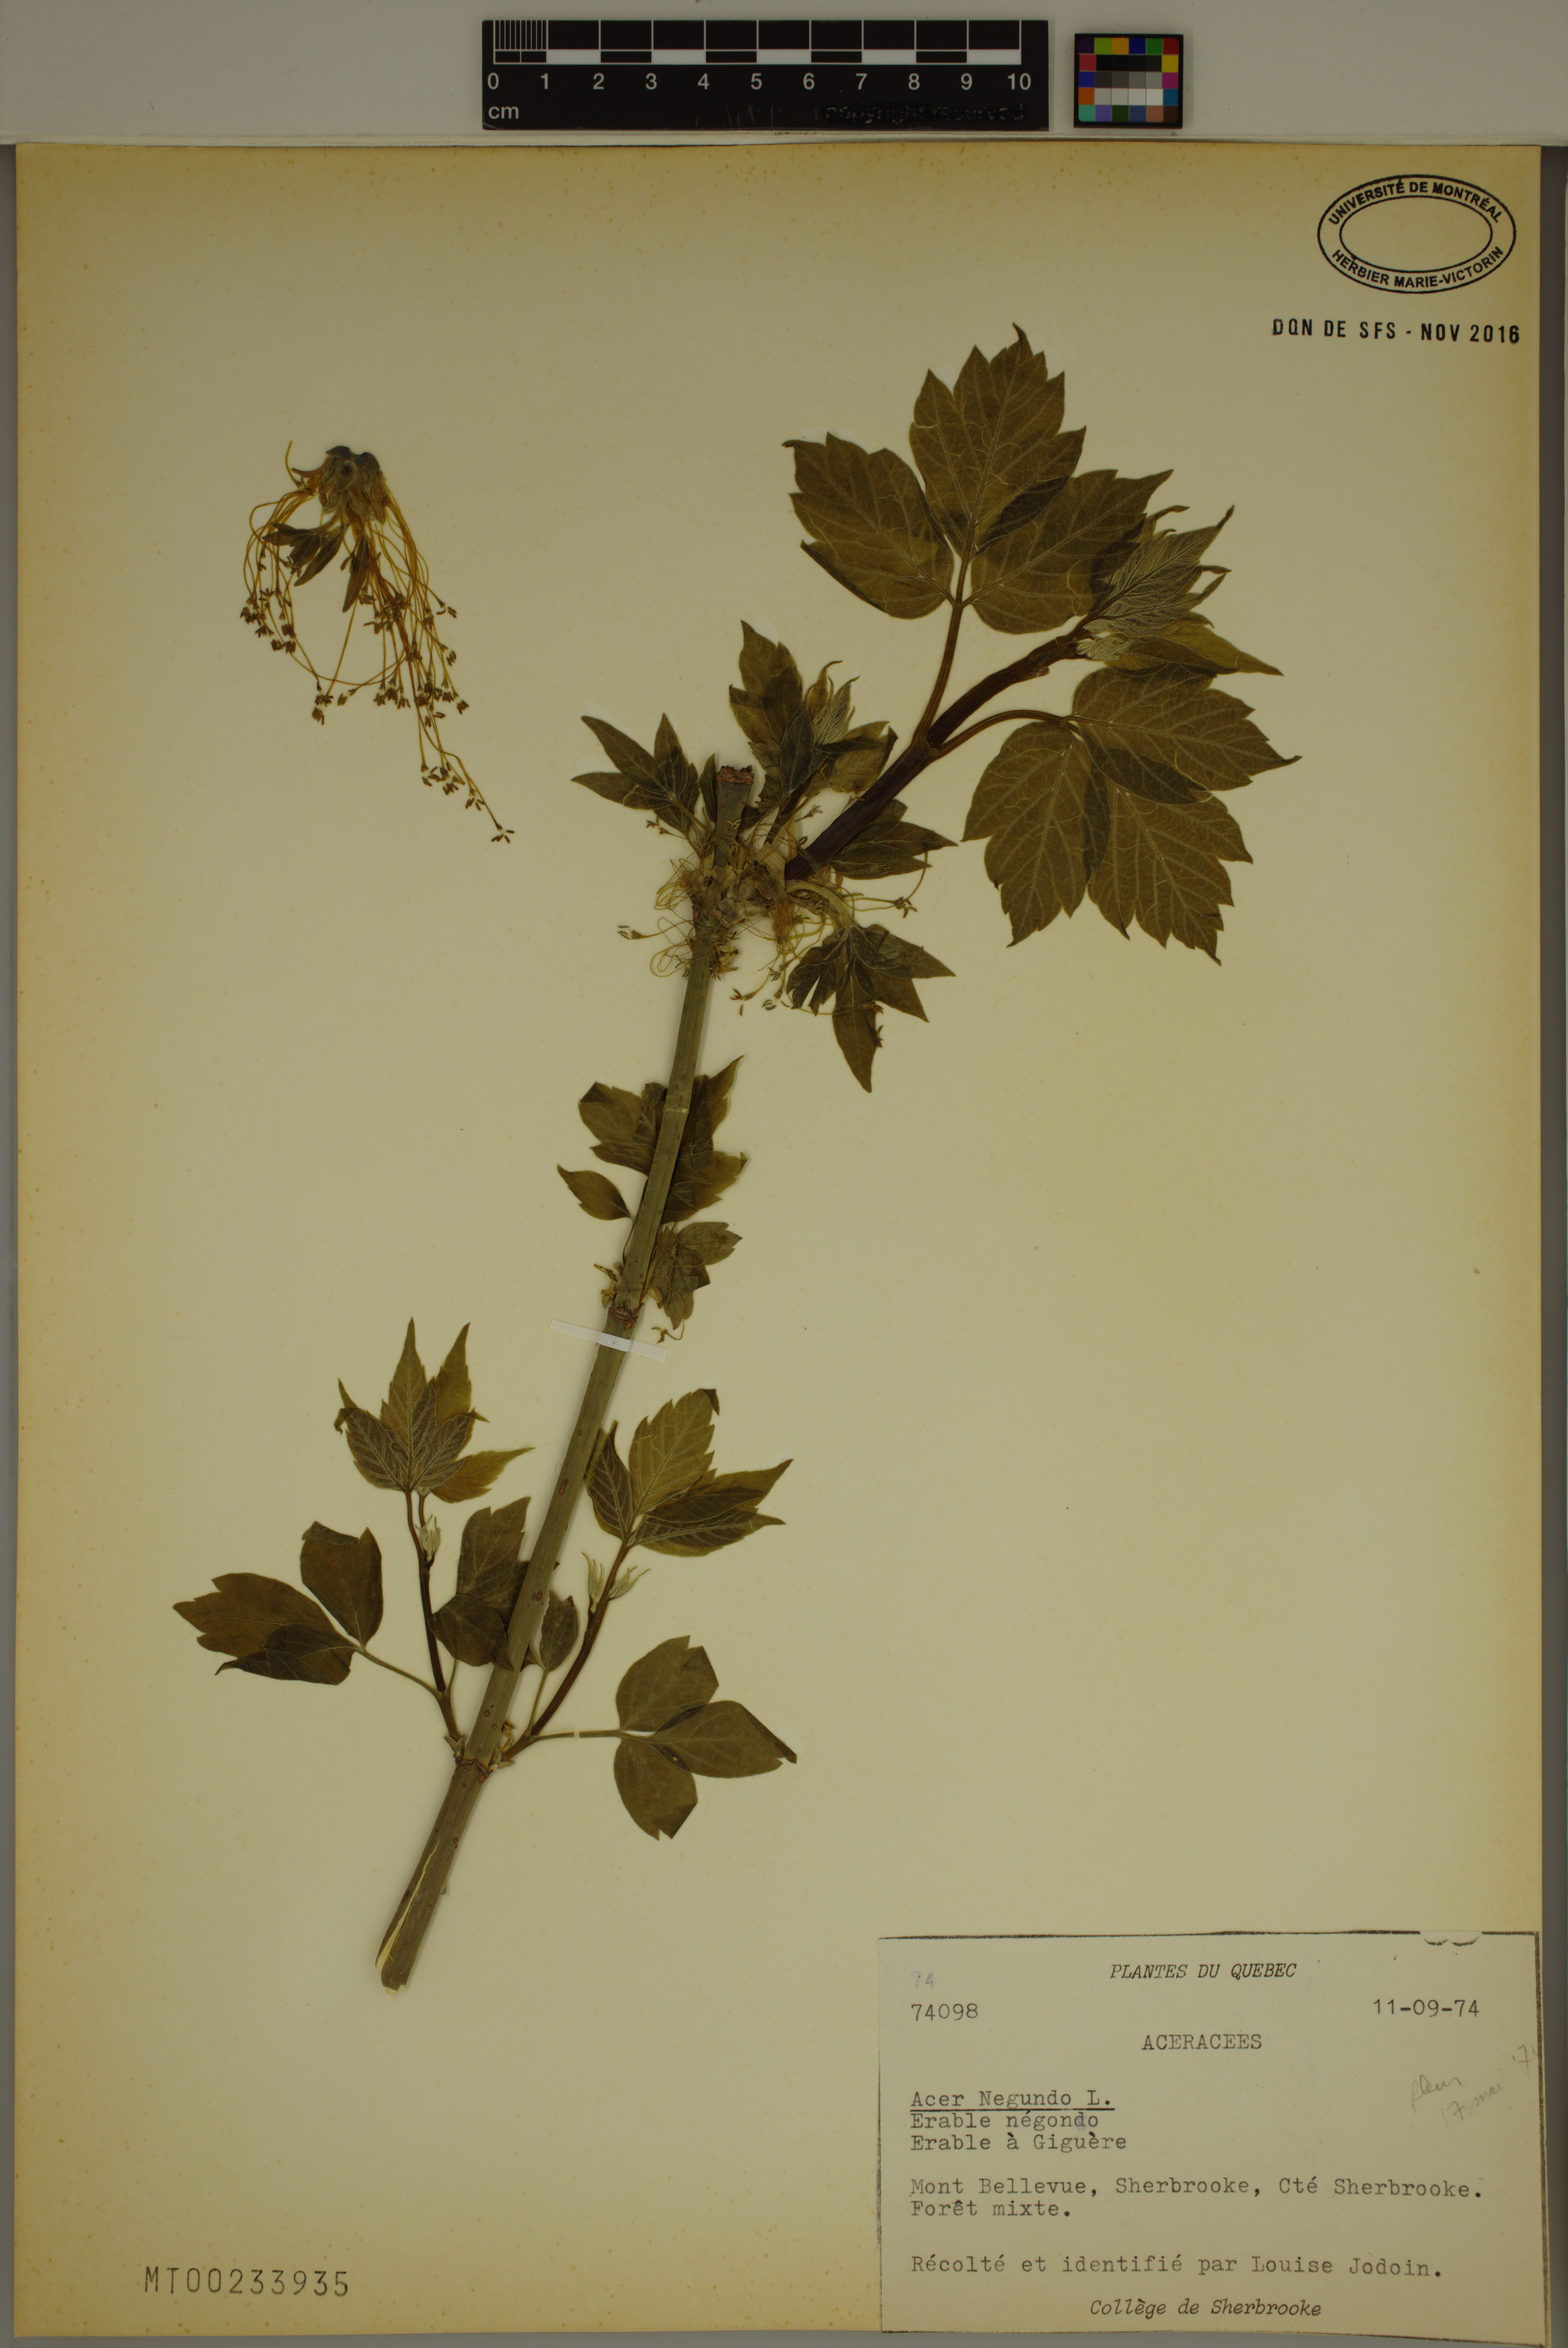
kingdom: Plantae
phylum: Tracheophyta
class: Magnoliopsida
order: Sapindales
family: Sapindaceae
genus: Acer
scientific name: Acer negundo
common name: Ashleaf maple
